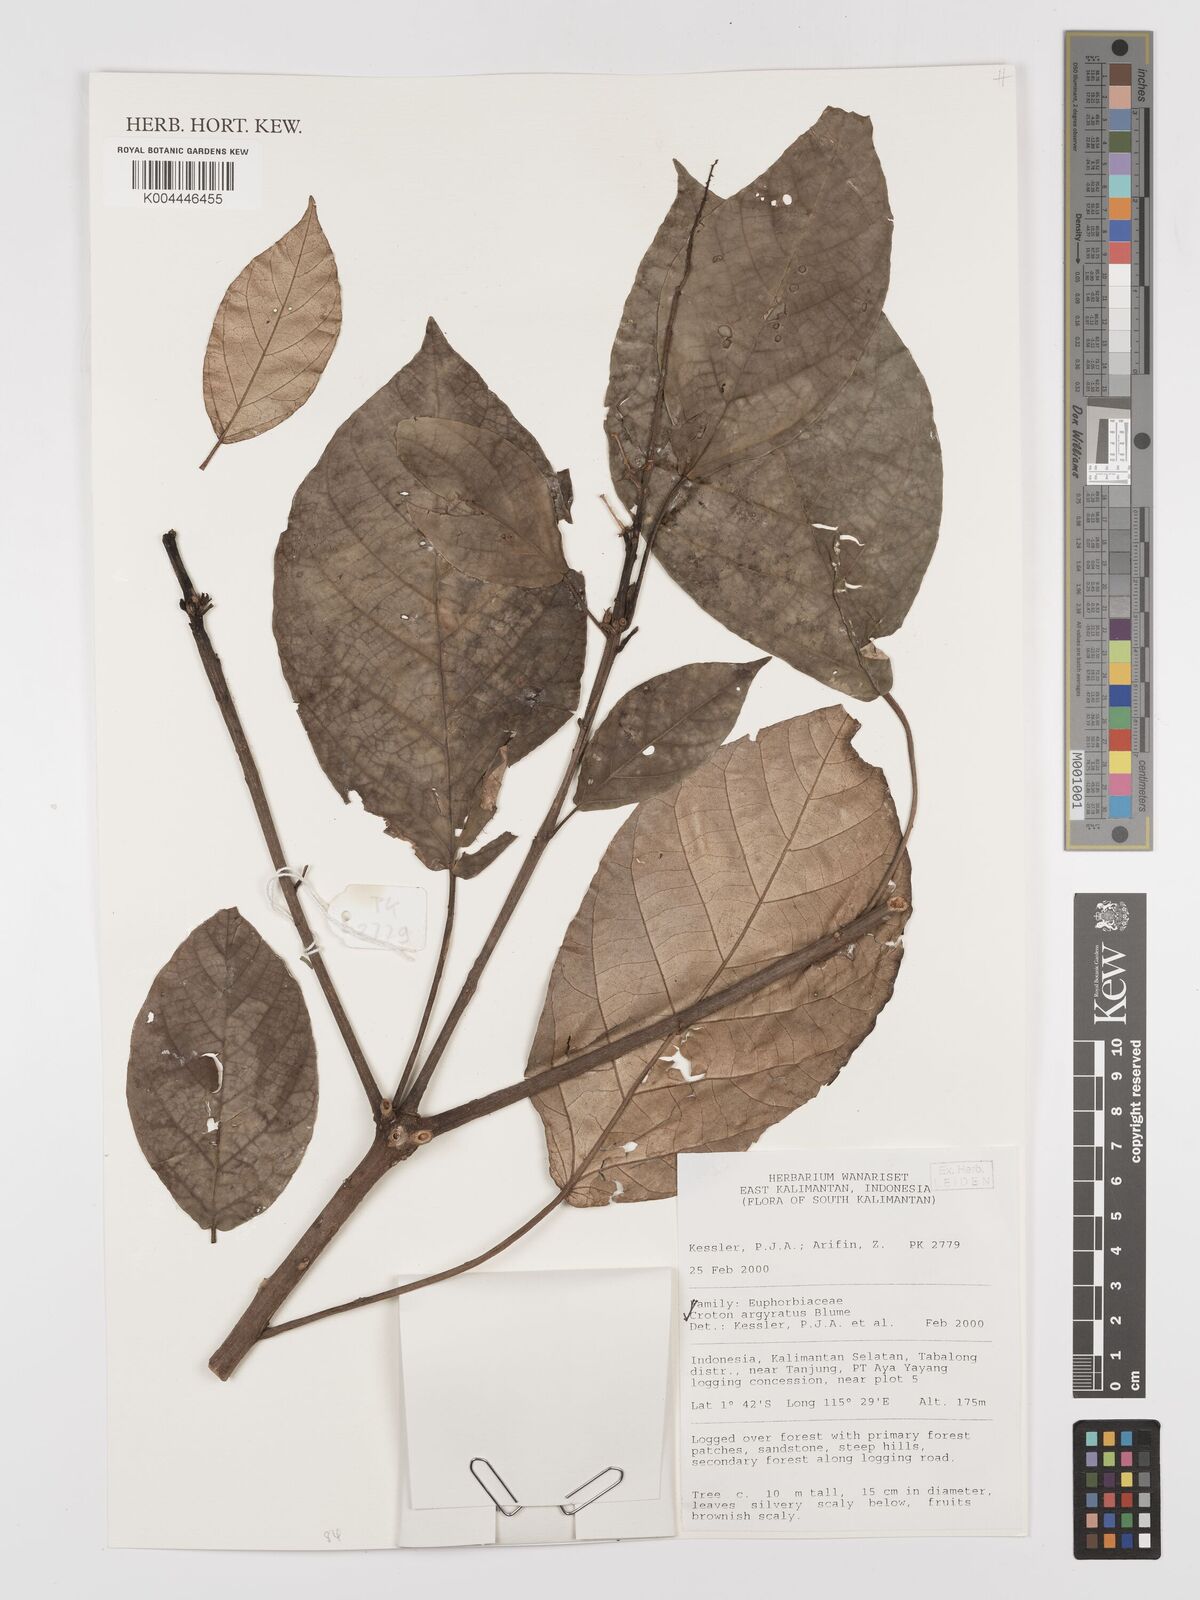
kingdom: Plantae
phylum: Tracheophyta
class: Magnoliopsida
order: Malpighiales
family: Euphorbiaceae
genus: Croton
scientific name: Croton argyratus
